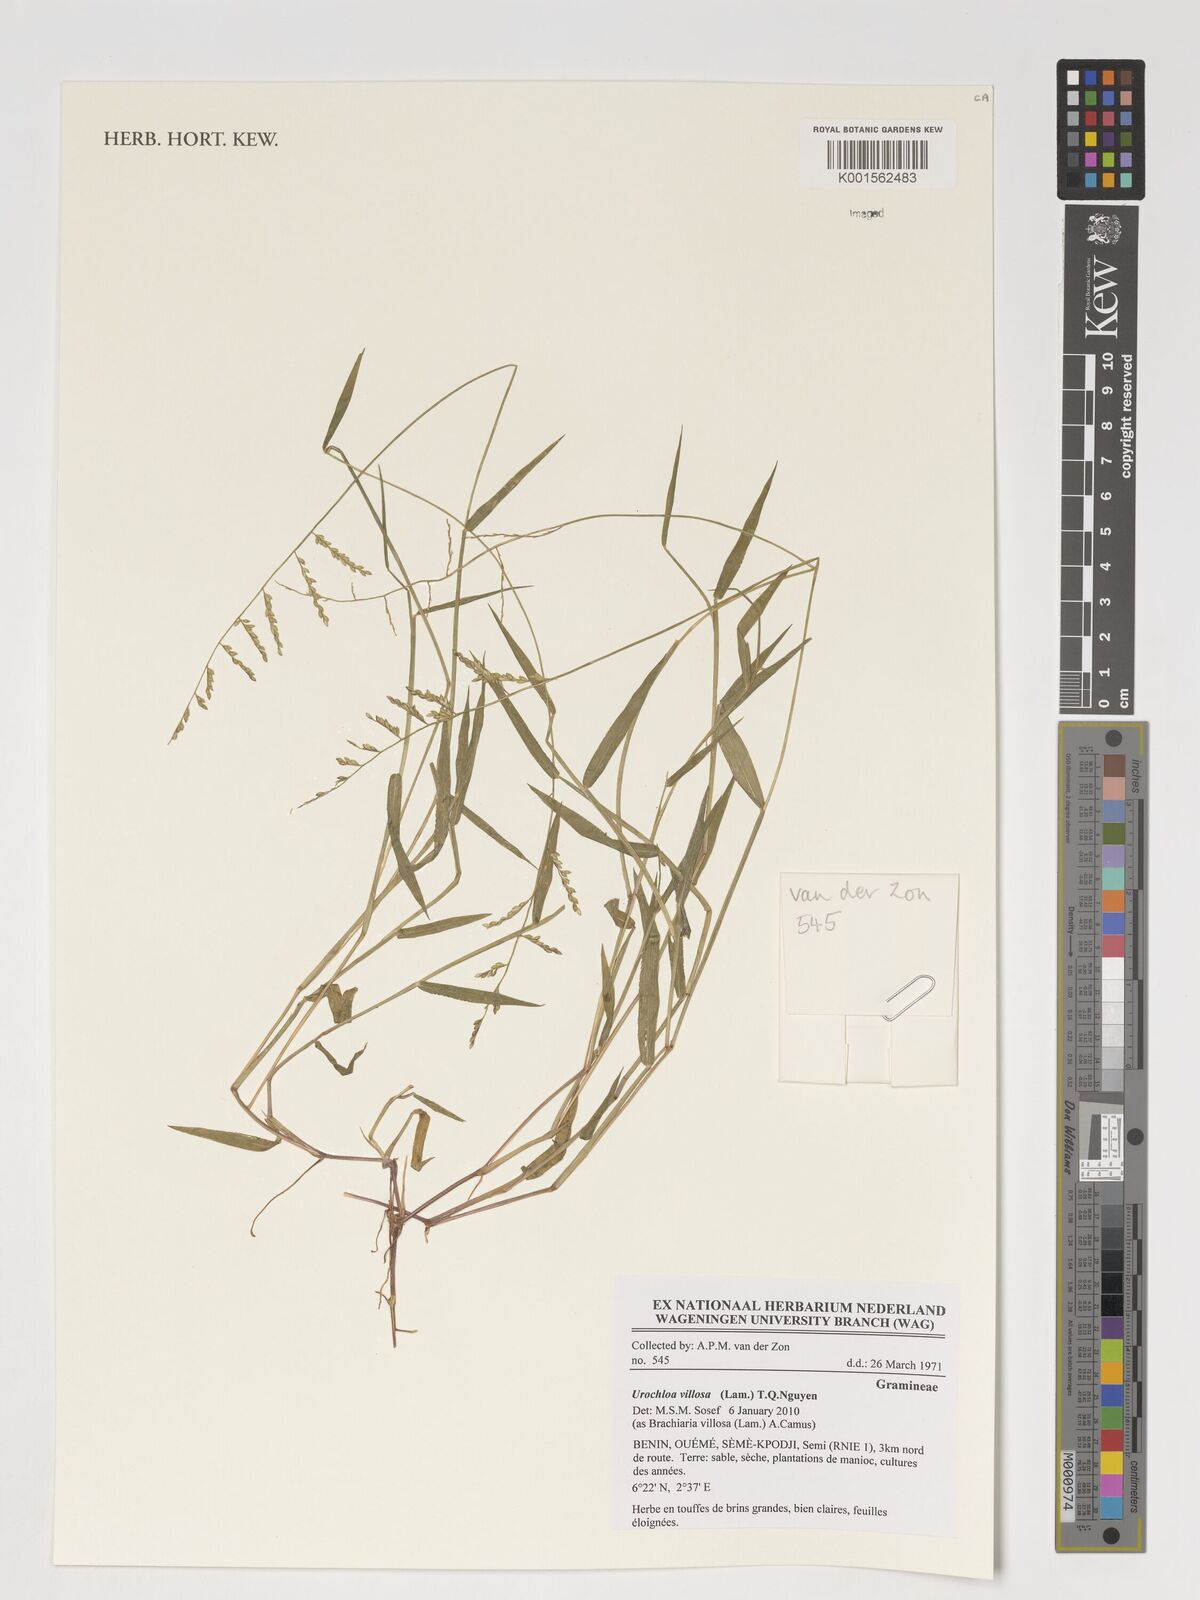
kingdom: Plantae
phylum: Tracheophyta
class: Liliopsida
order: Poales
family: Poaceae
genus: Urochloa
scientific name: Urochloa villosa
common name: Hairy signalgrass
